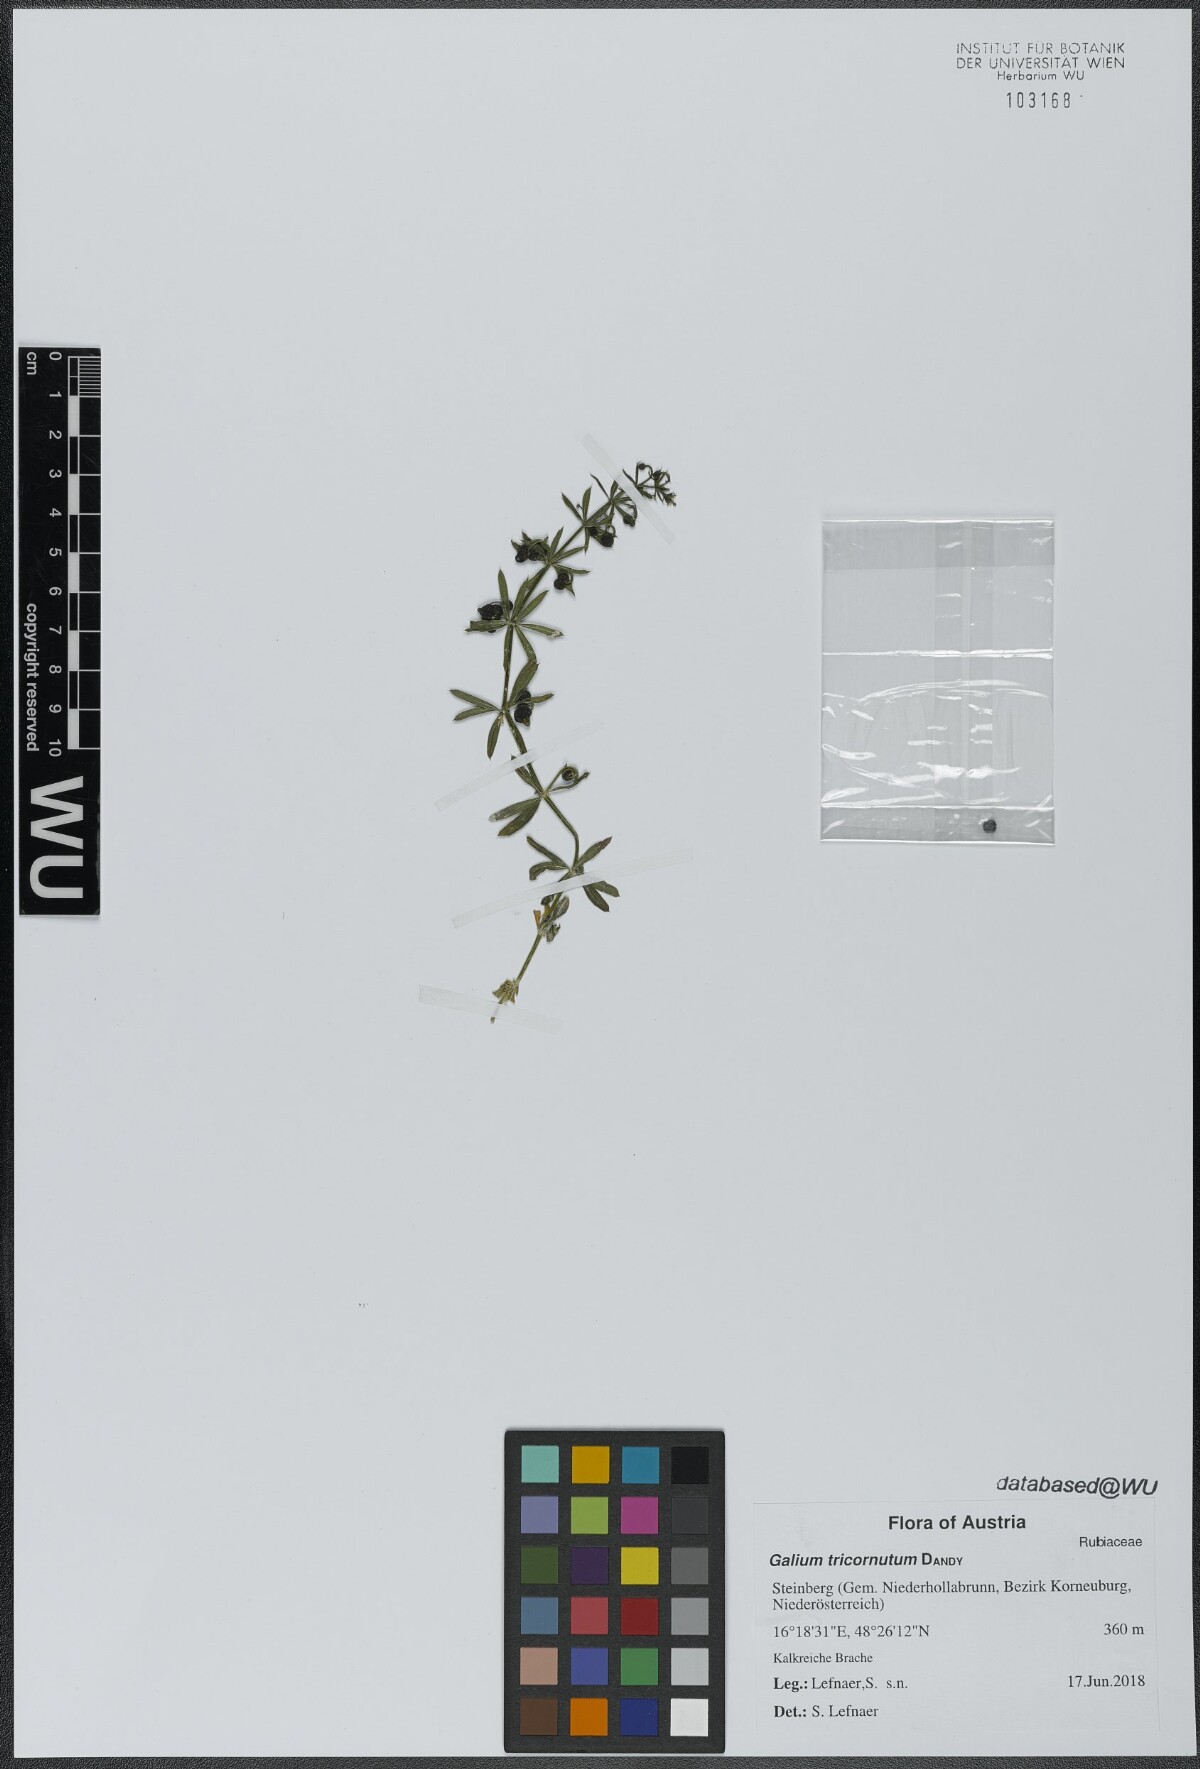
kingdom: Plantae
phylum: Tracheophyta
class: Magnoliopsida
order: Gentianales
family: Rubiaceae
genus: Galium
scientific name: Galium tricornutum
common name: Corn cleavers
